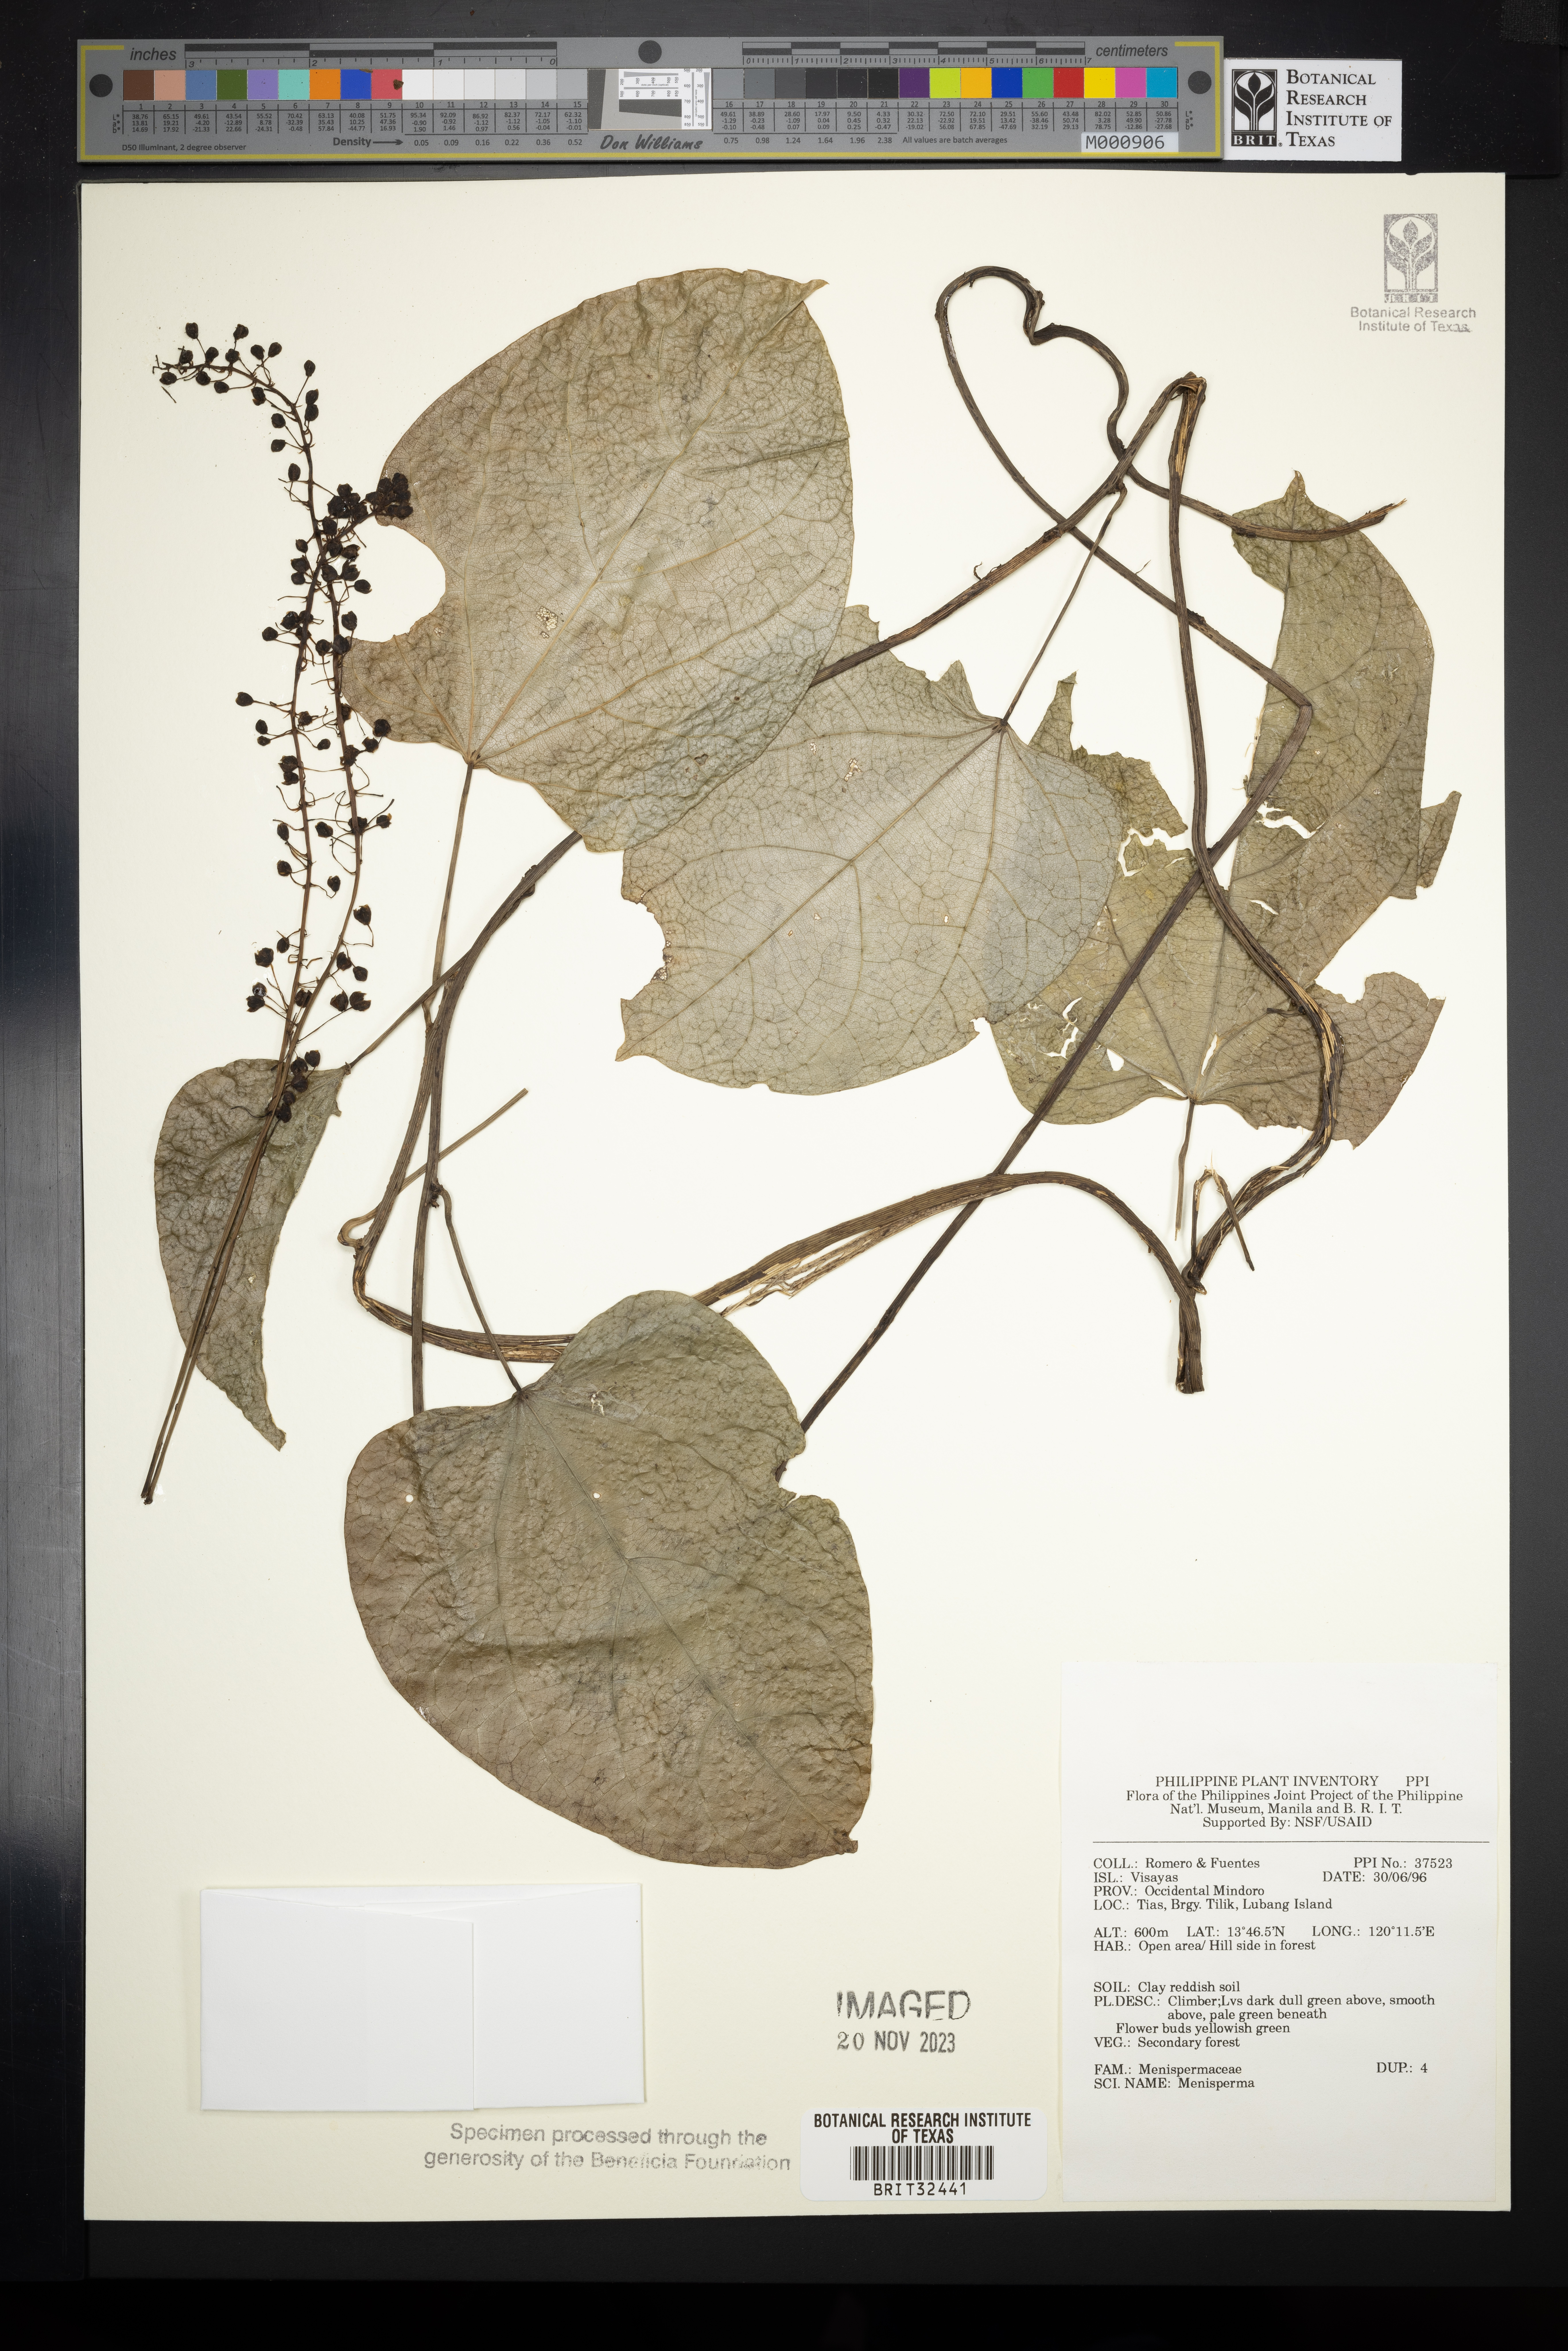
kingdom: Plantae
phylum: Tracheophyta
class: Magnoliopsida
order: Ranunculales
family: Menispermaceae
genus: Menispermum
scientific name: Menispermum
